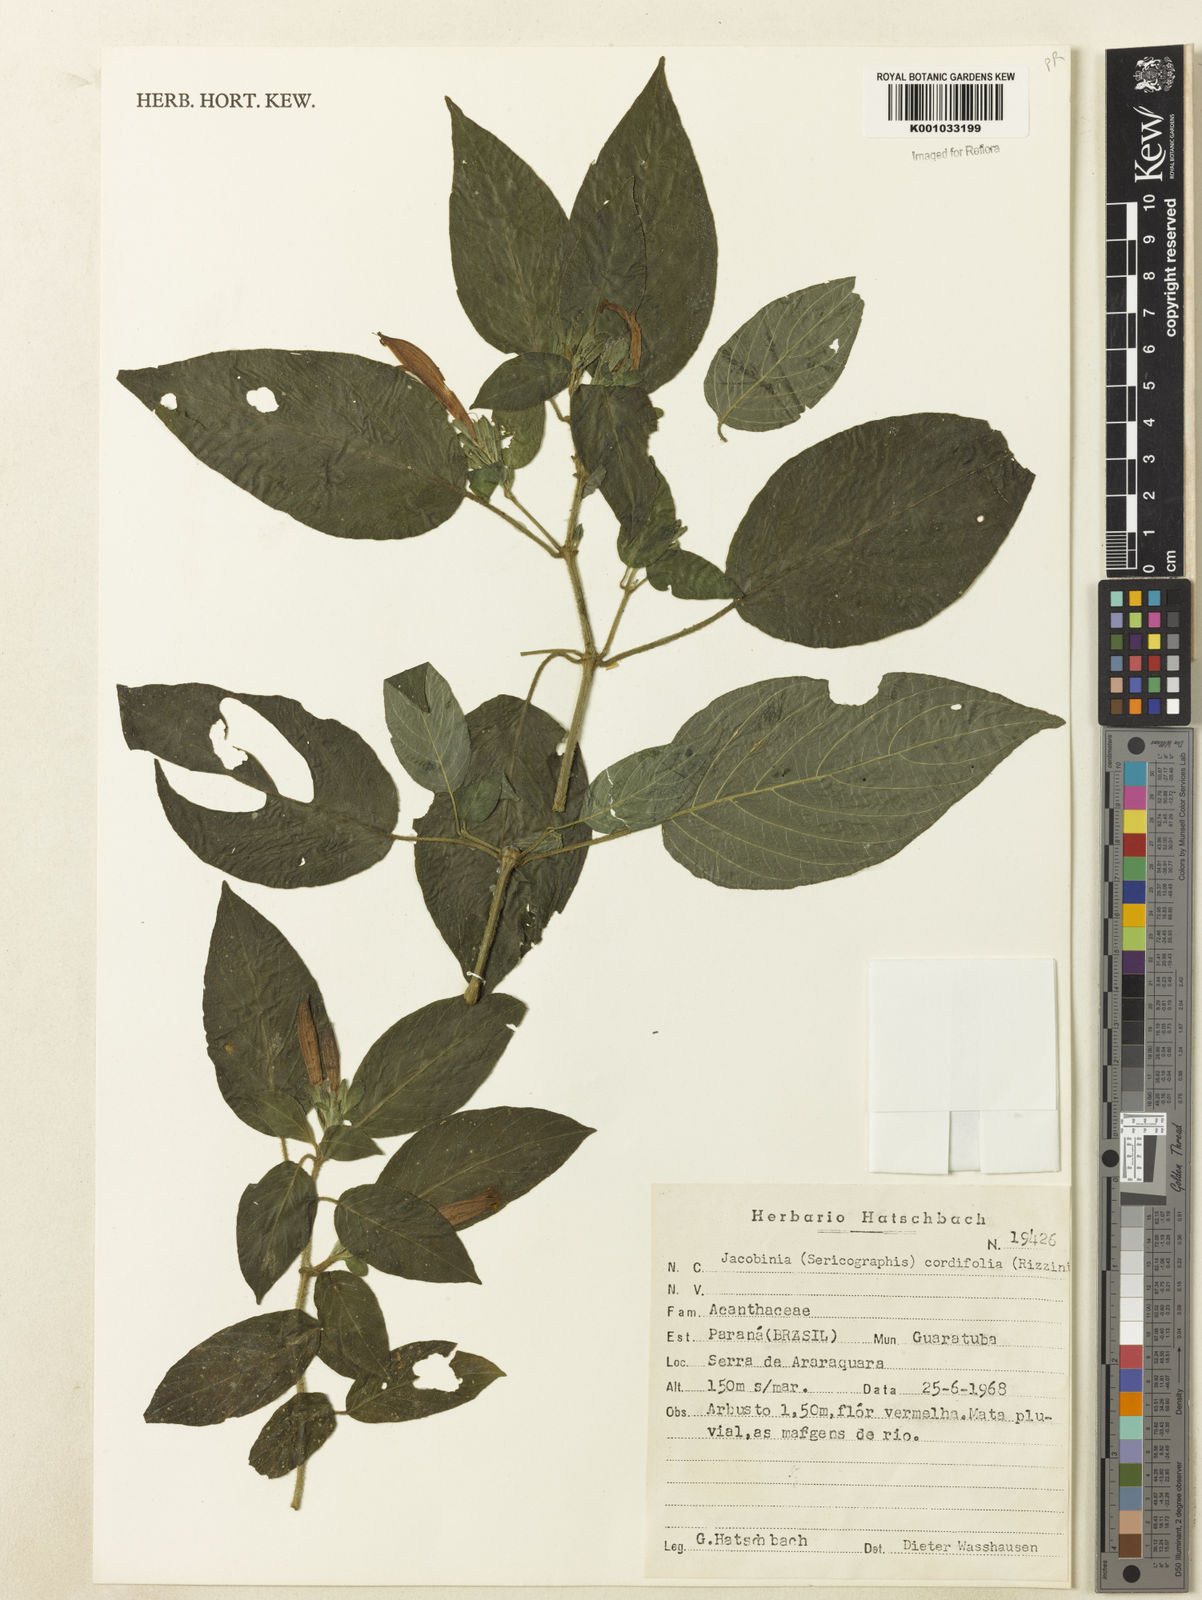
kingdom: Plantae
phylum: Tracheophyta
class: Magnoliopsida
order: Lamiales
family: Acanthaceae
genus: Andrographis
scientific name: Andrographis elongata
